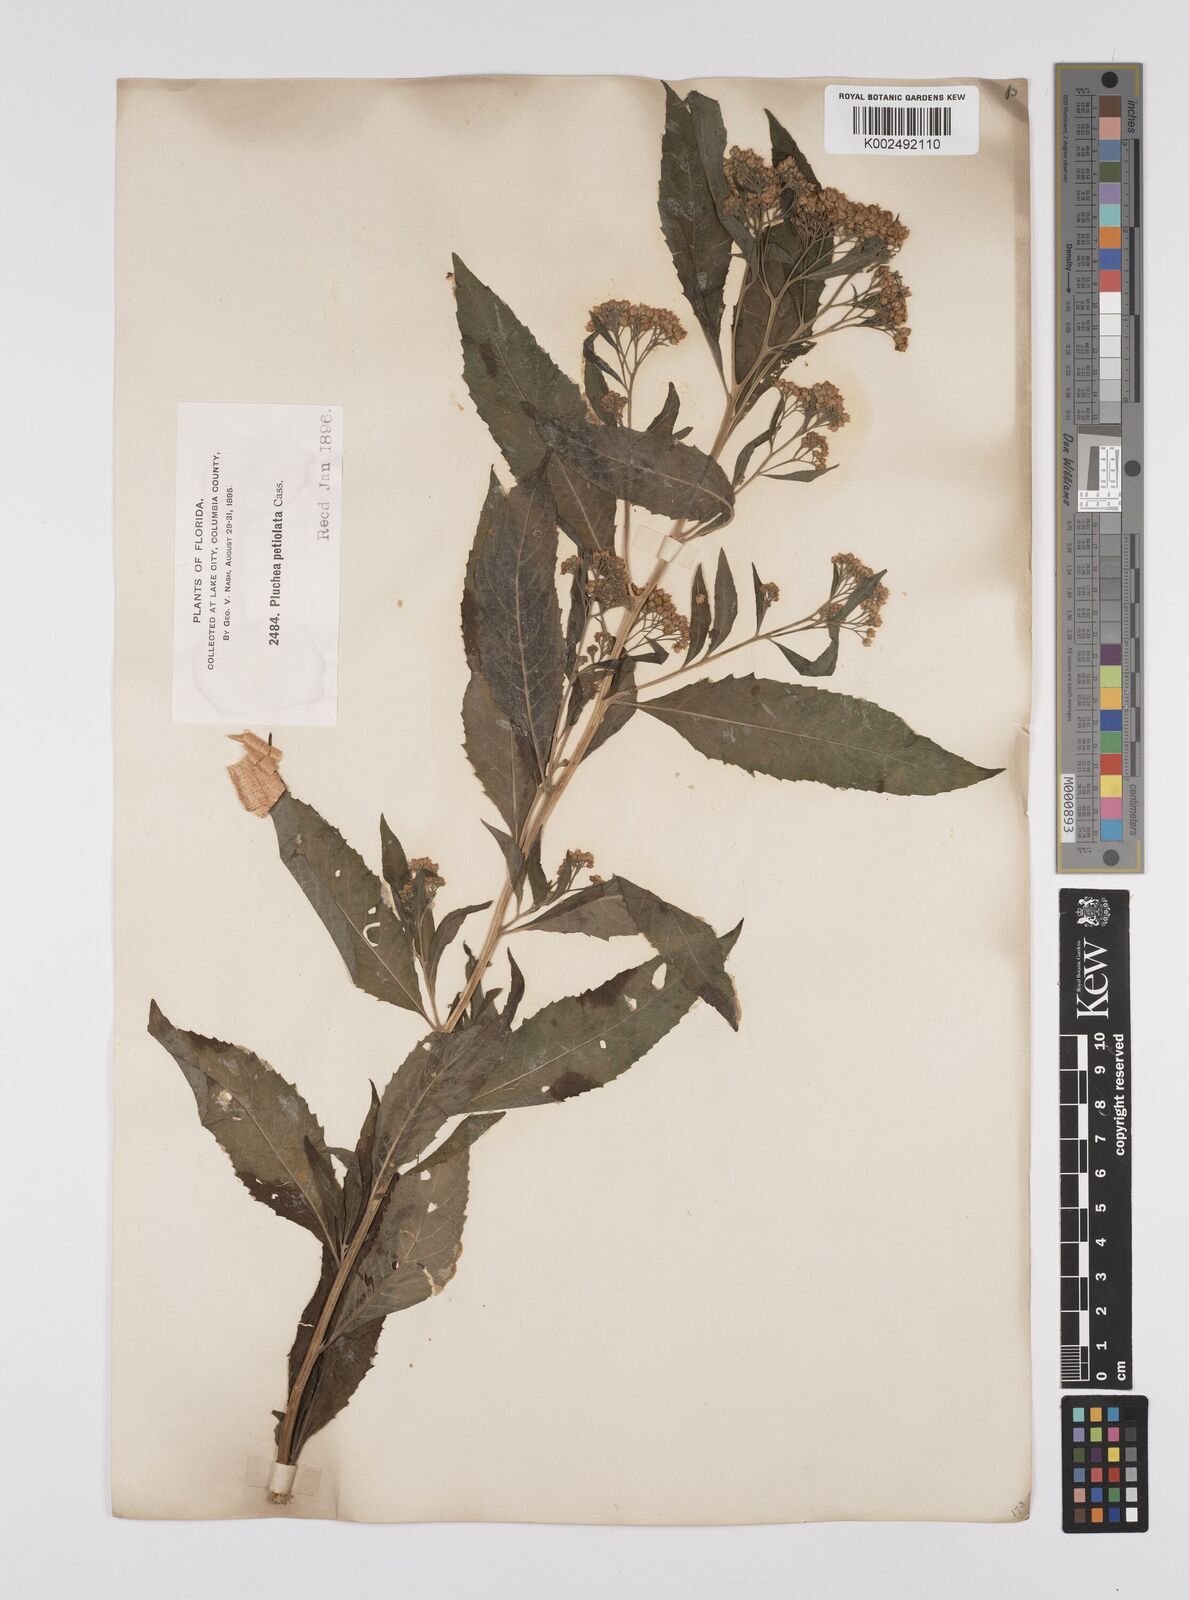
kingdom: Plantae
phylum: Tracheophyta
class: Magnoliopsida
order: Asterales
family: Asteraceae
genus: Pluchea
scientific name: Pluchea
